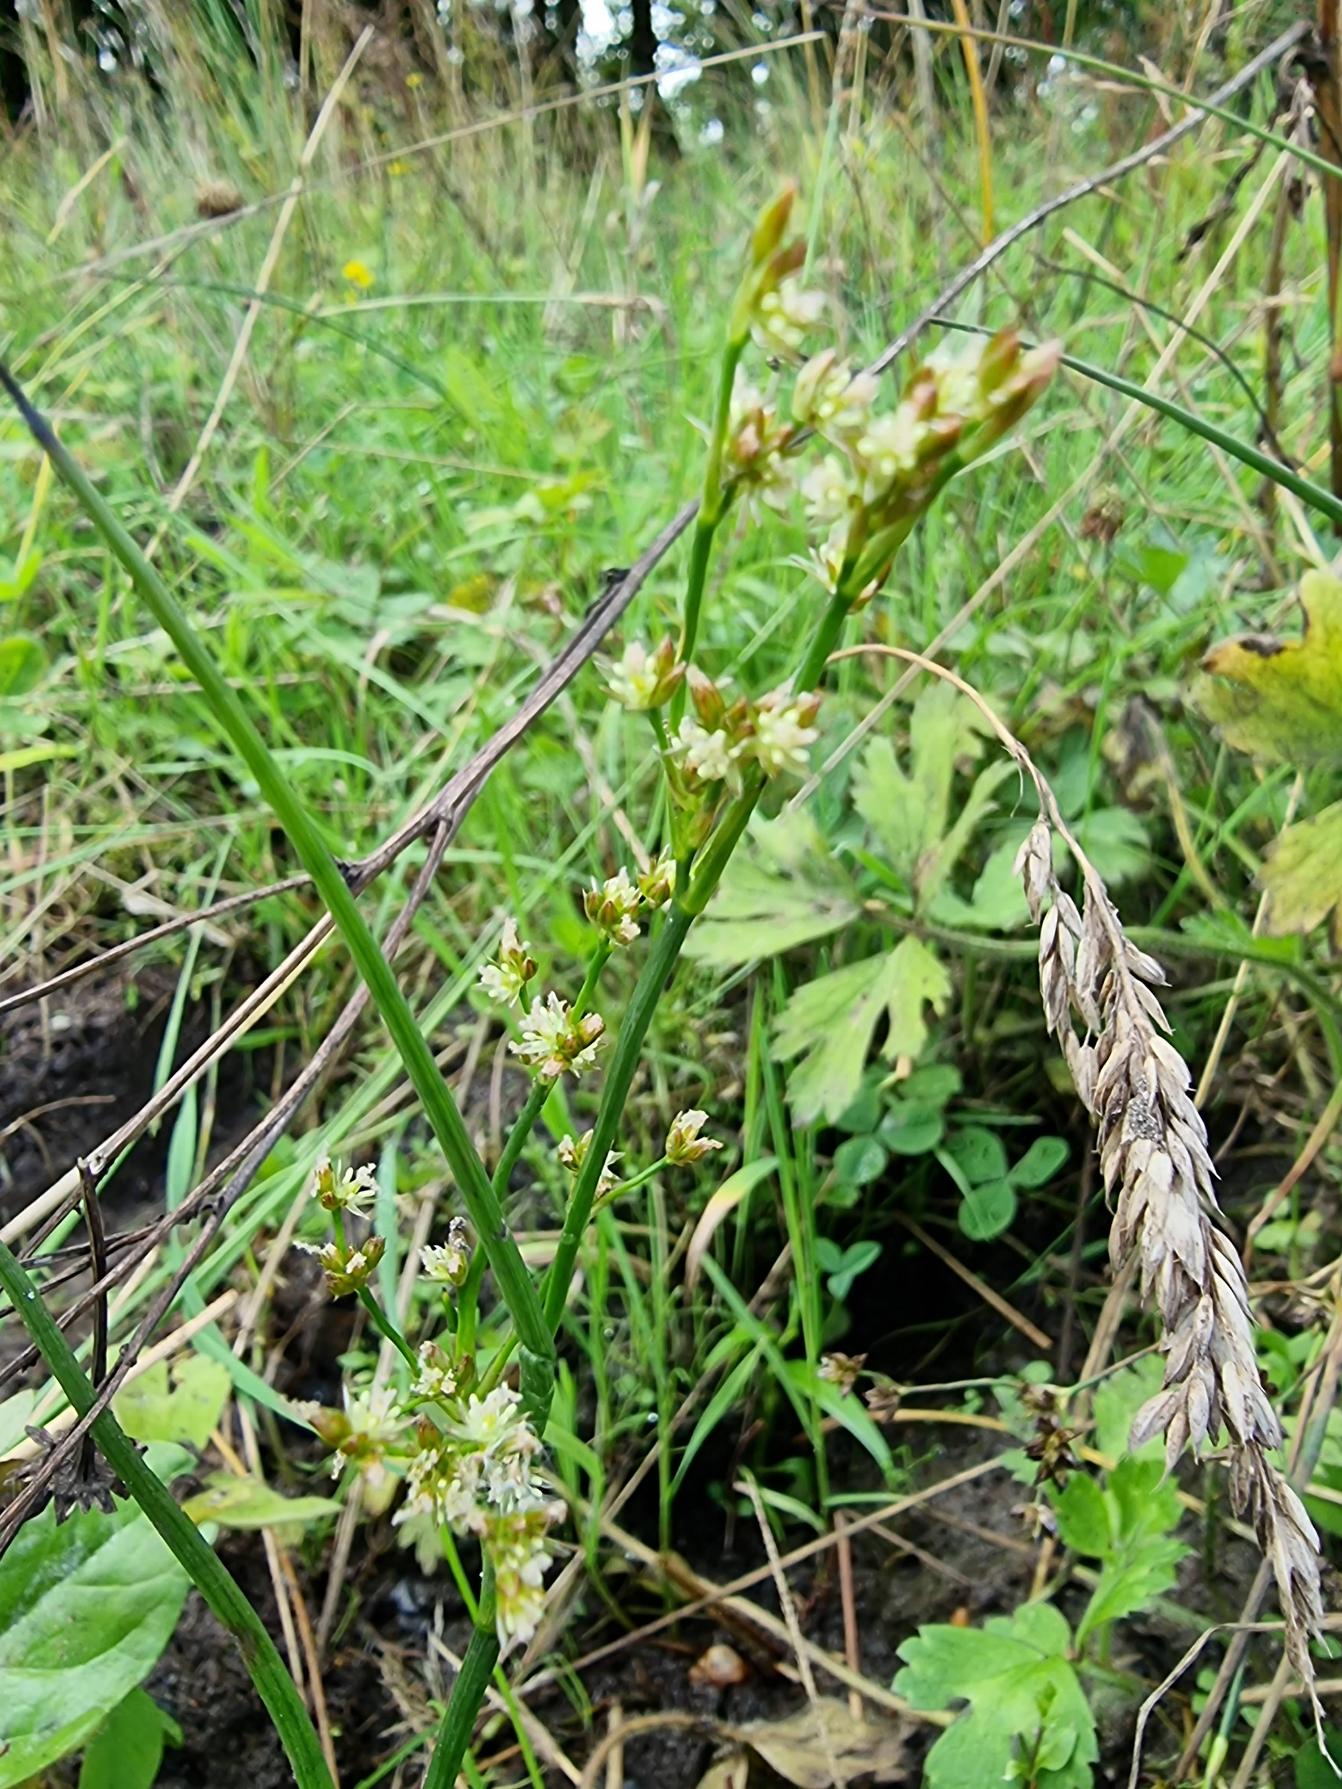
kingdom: Plantae
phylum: Tracheophyta
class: Liliopsida
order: Poales
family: Juncaceae
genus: Juncus
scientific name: Juncus articulatus
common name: Glanskapslet siv
